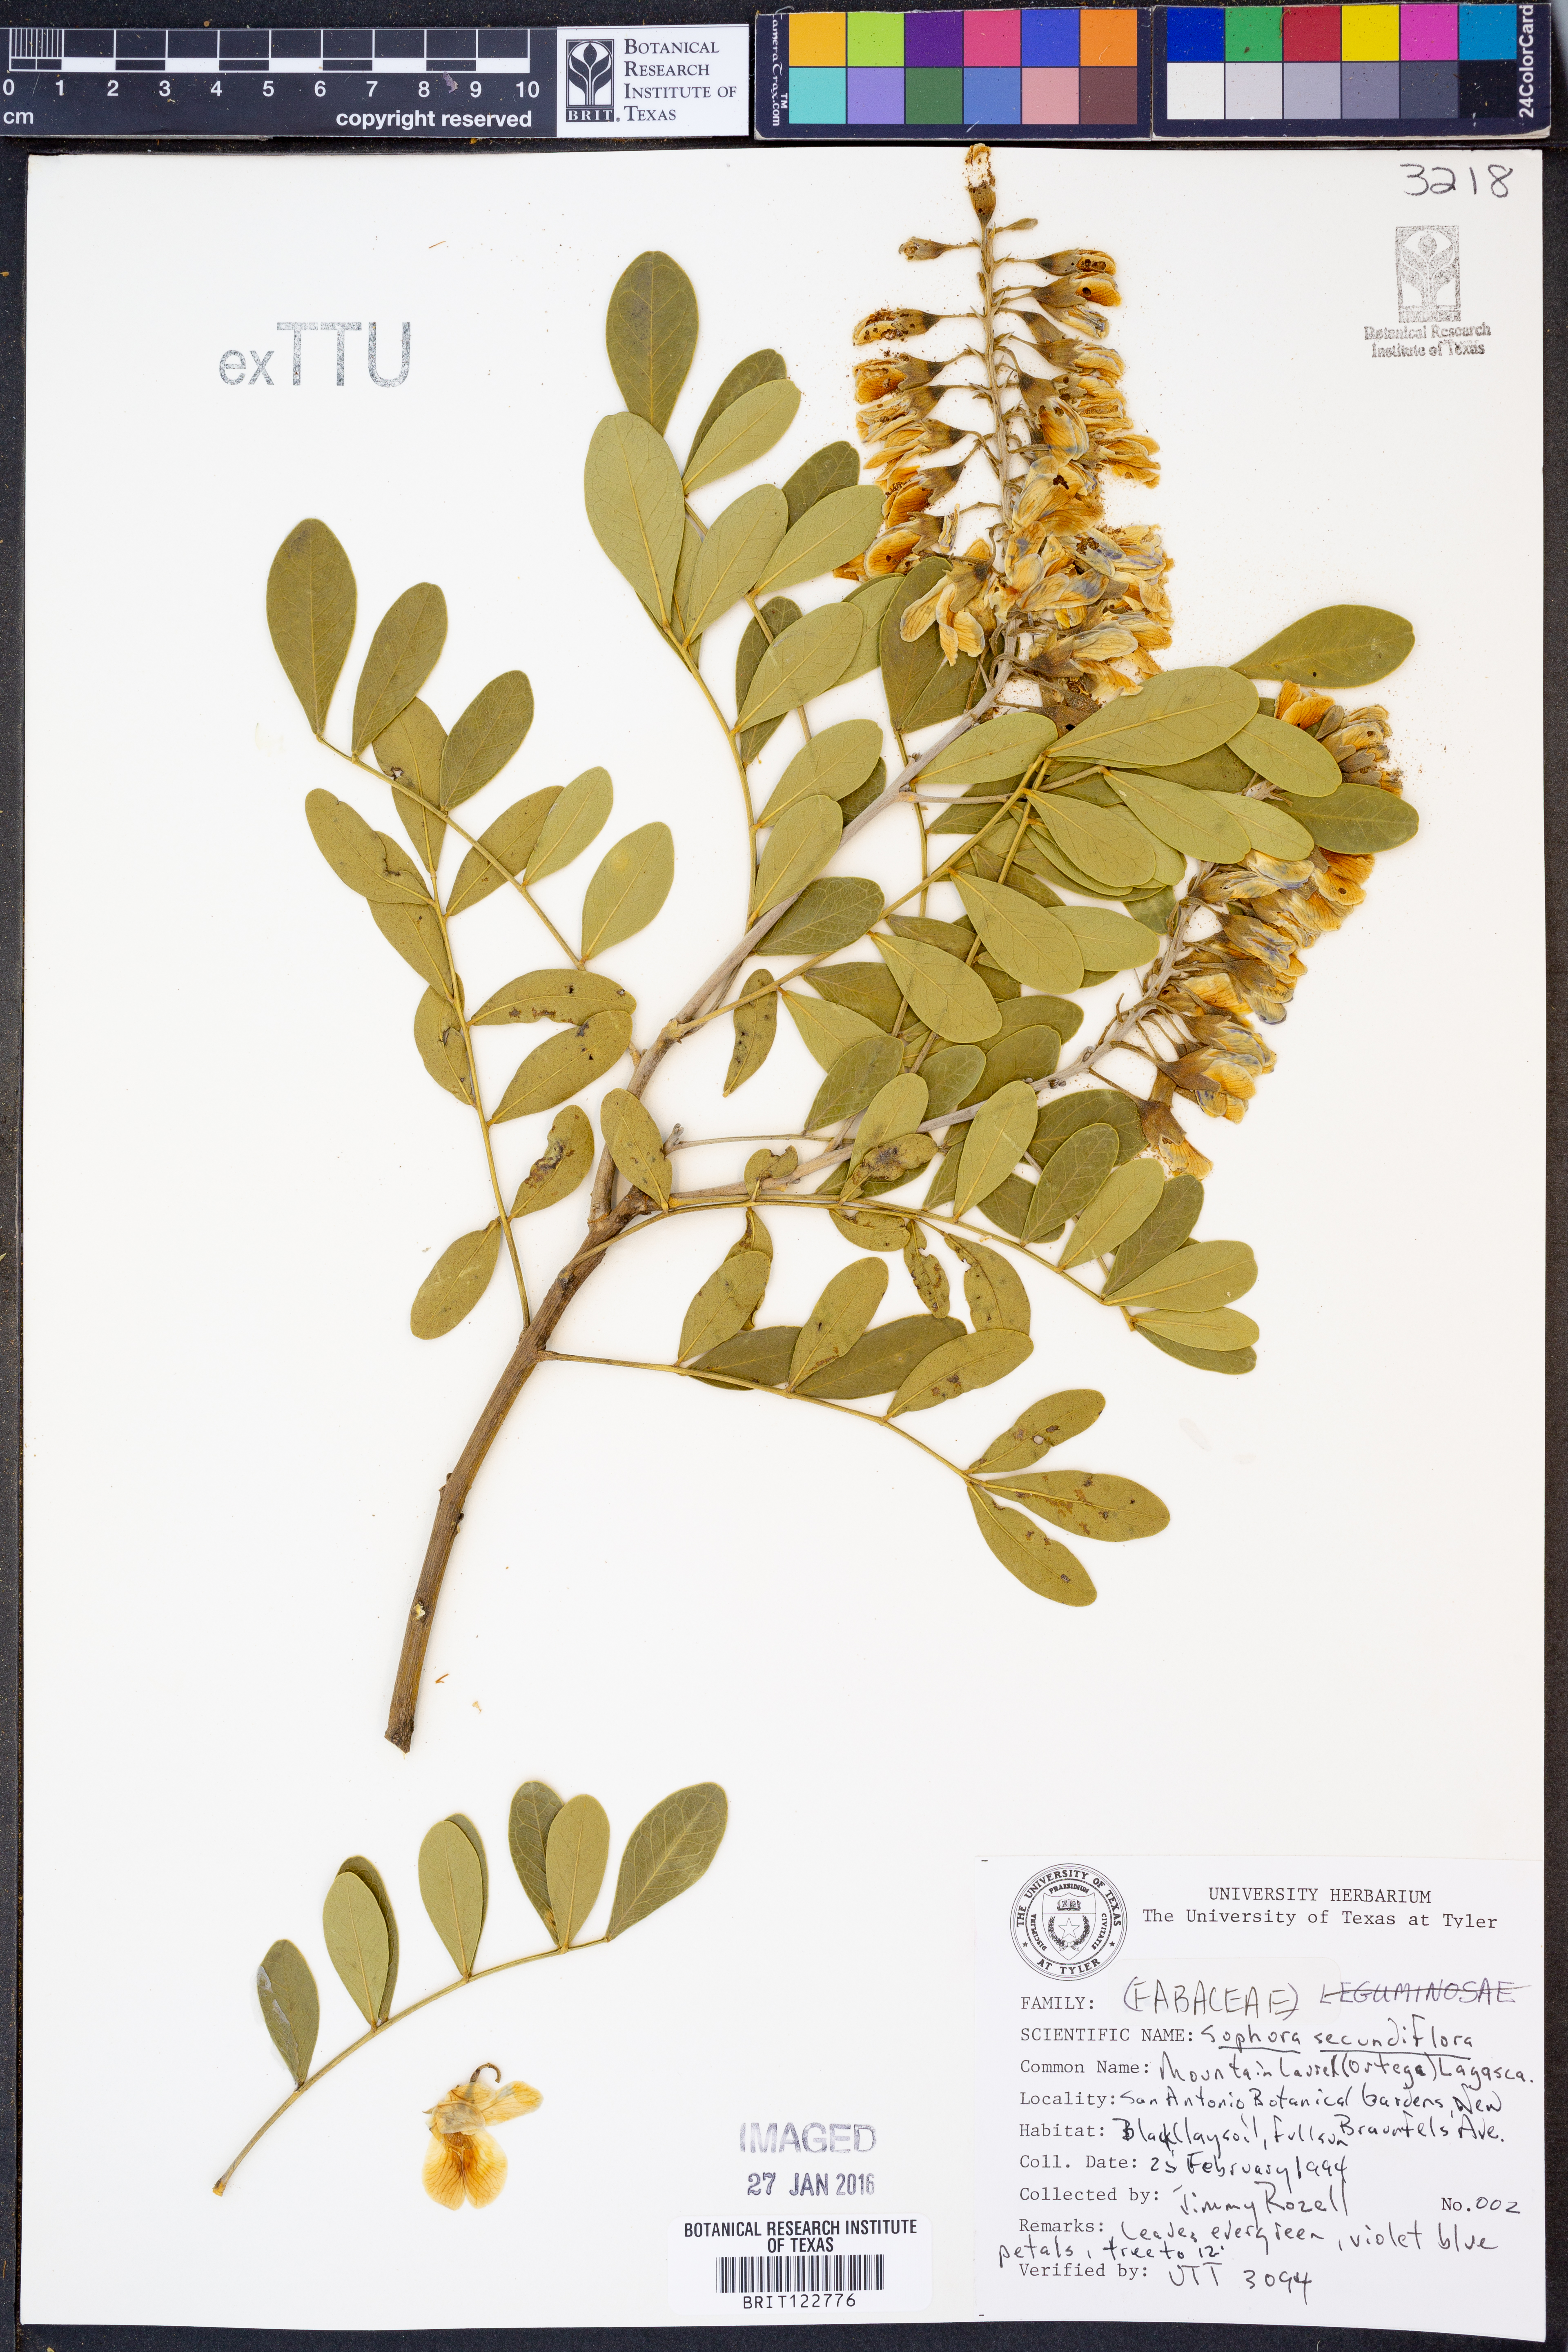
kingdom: Plantae
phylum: Tracheophyta
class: Magnoliopsida
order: Fabales
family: Fabaceae
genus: Dermatophyllum
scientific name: Dermatophyllum secundiflorum
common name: Texas-mountain-laurel
